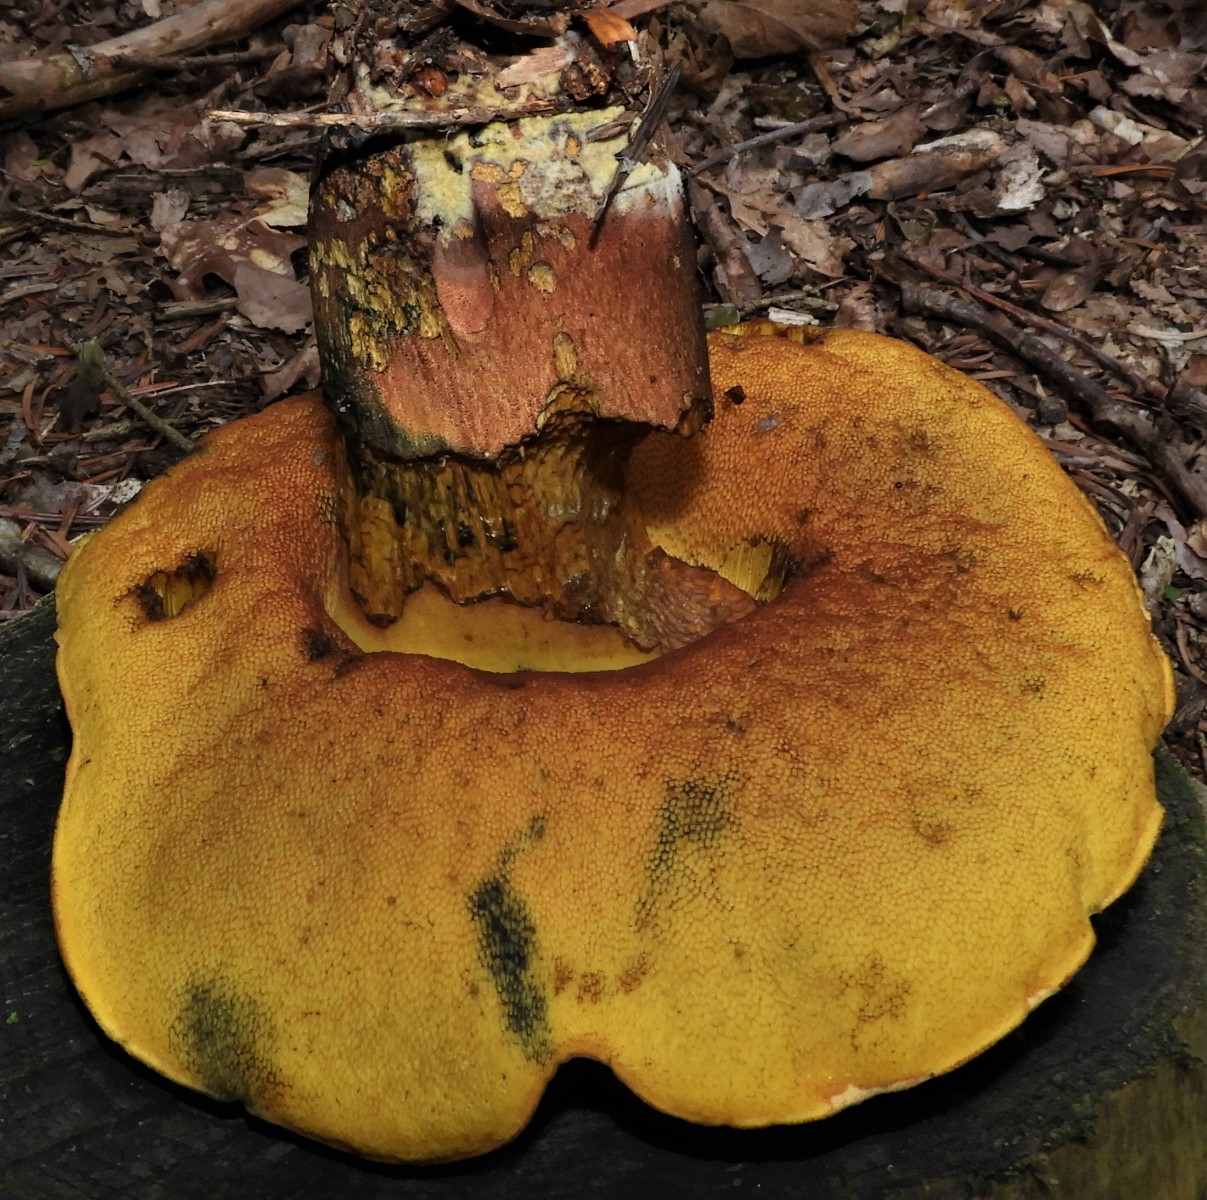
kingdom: Fungi
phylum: Basidiomycota
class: Agaricomycetes
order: Boletales
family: Boletaceae
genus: Neoboletus
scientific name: Neoboletus erythropus
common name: punktstokket indigorørhat
